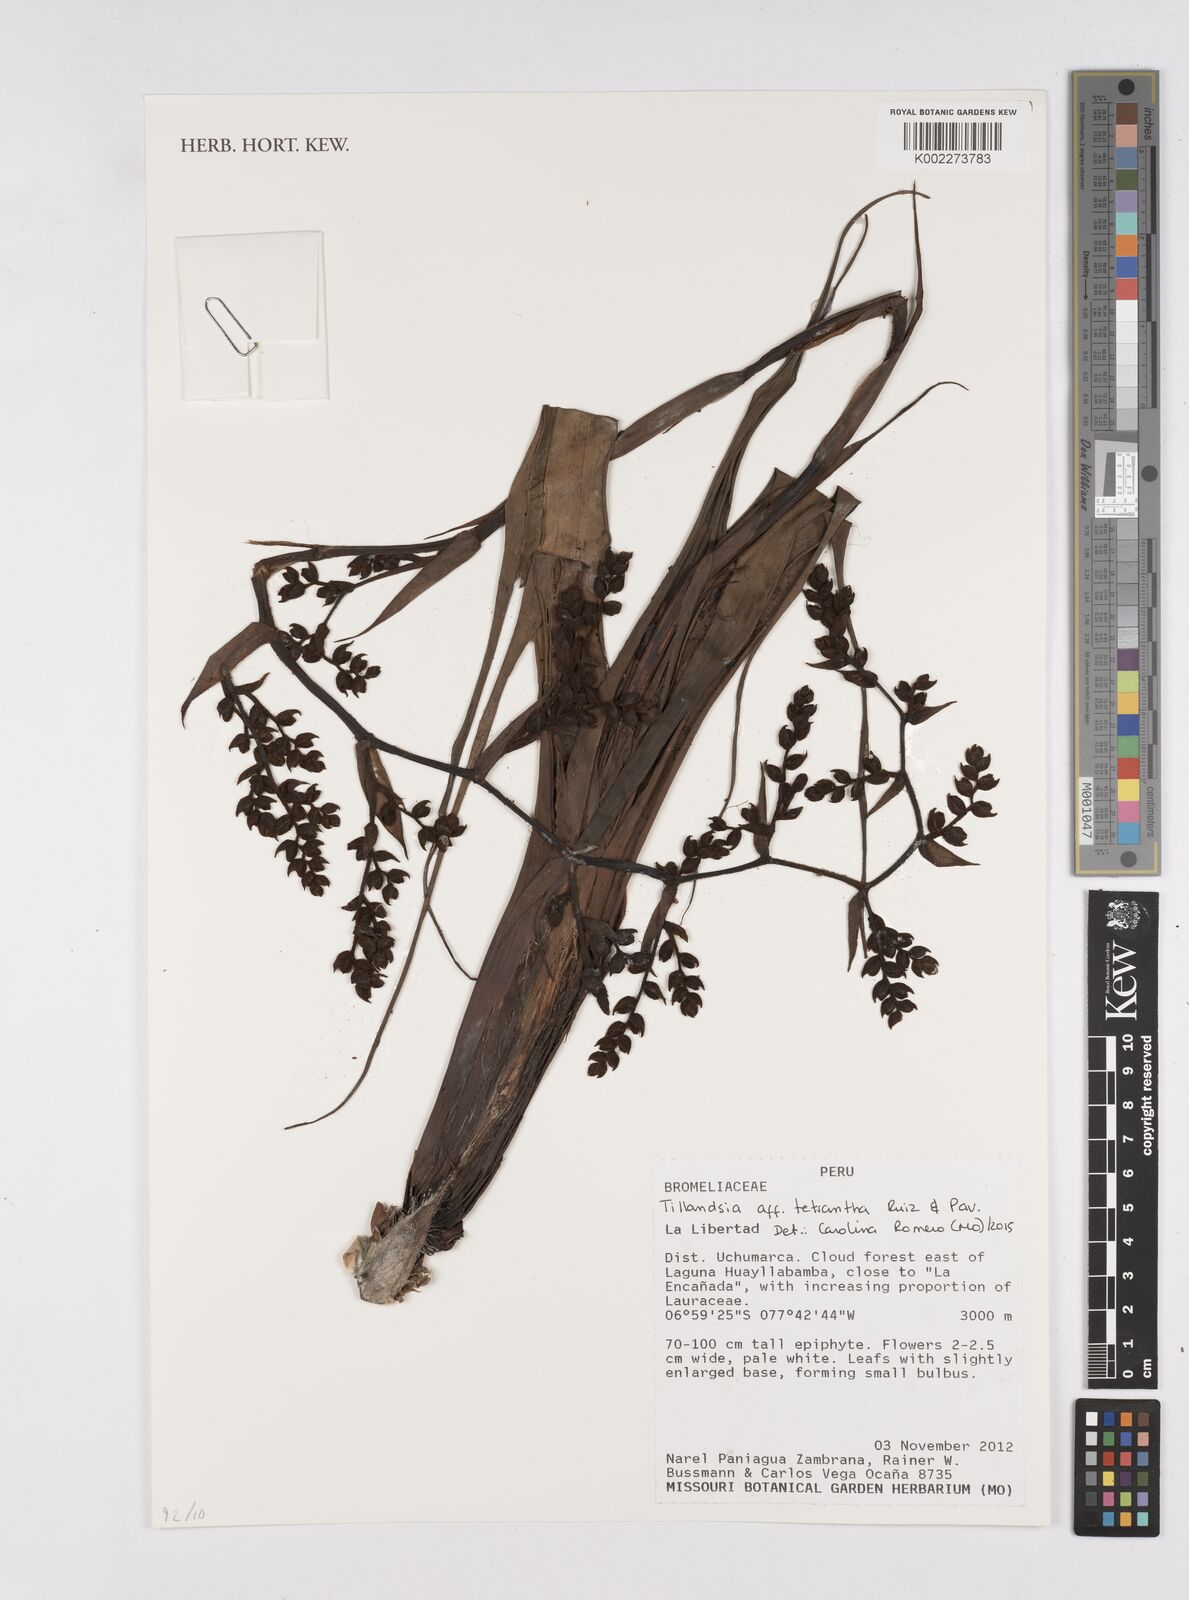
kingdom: Plantae
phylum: Tracheophyta
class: Liliopsida
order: Poales
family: Bromeliaceae
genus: Racinaea
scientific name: Racinaea tetrantha
